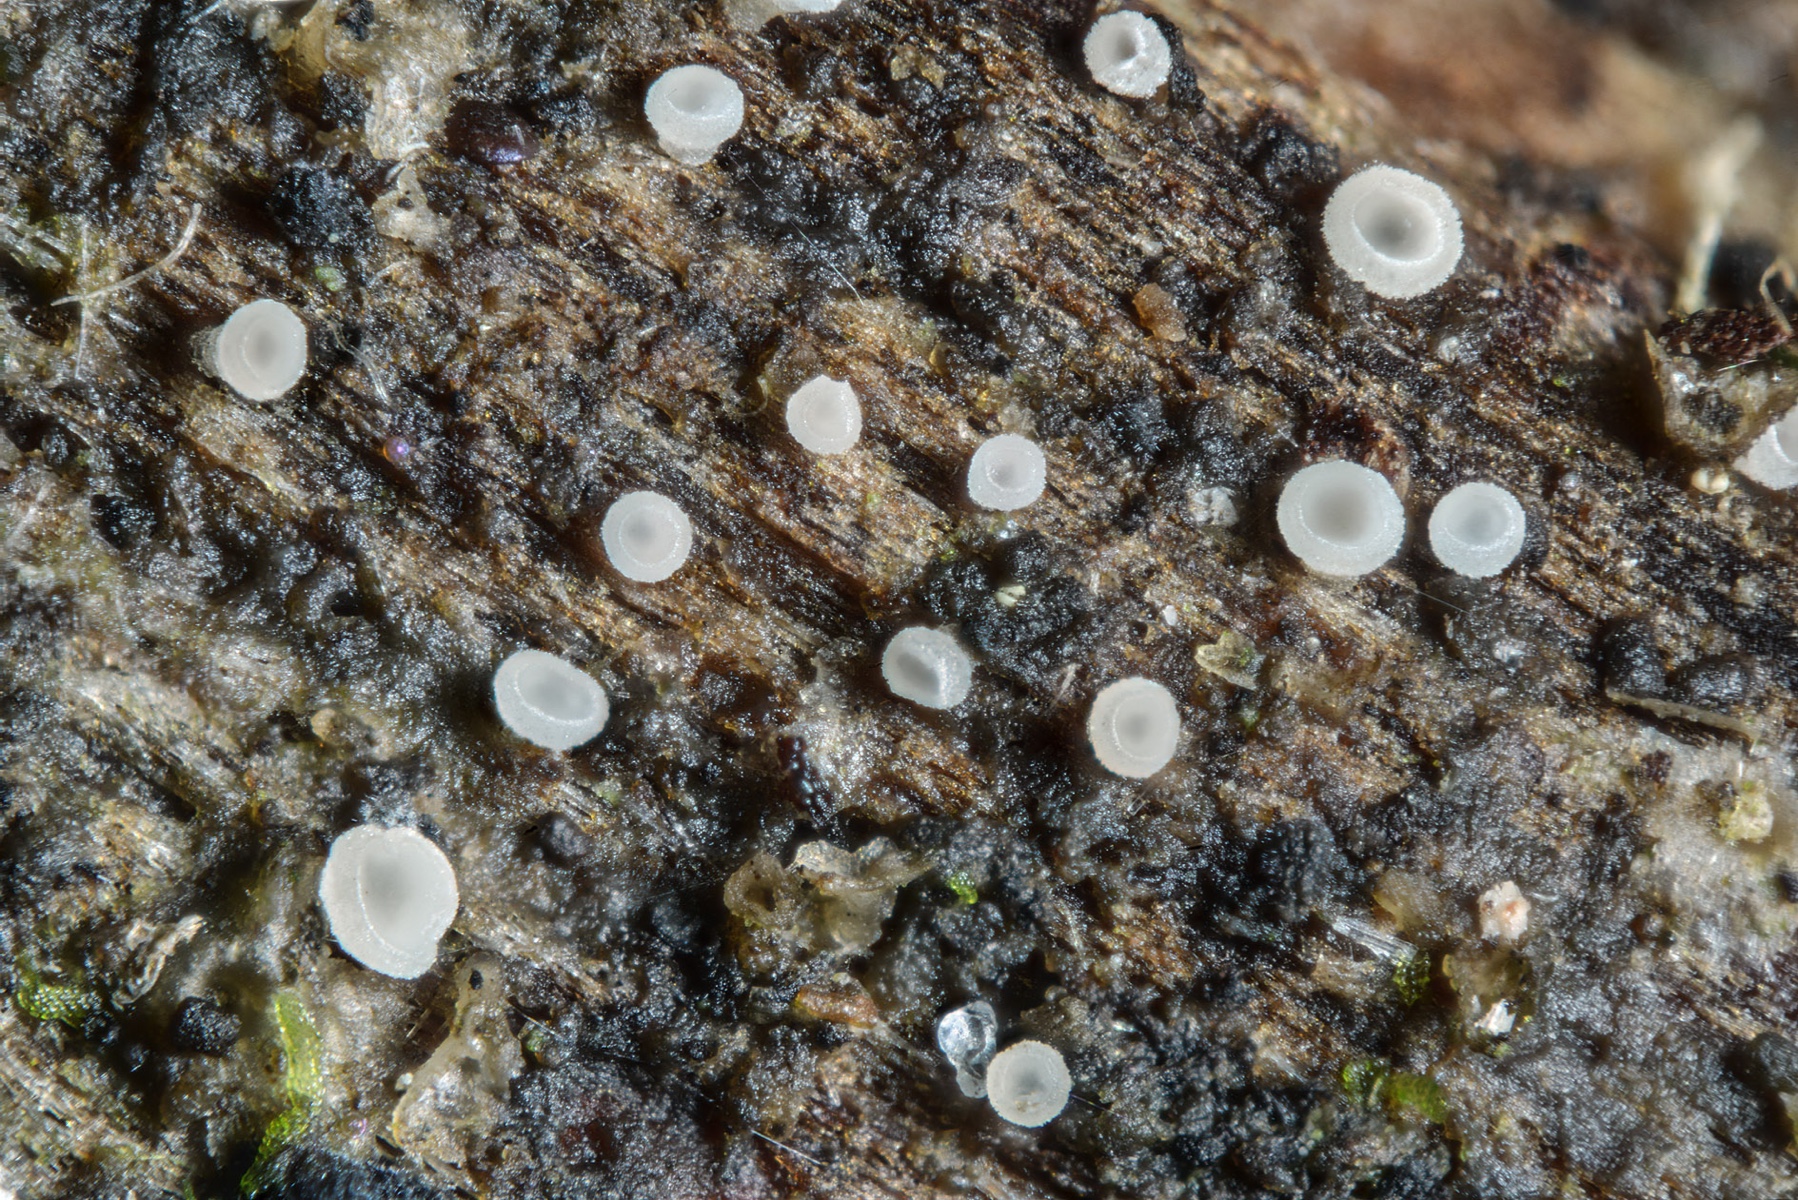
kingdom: Fungi
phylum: Ascomycota
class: Leotiomycetes
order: Helotiales
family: Pezizellaceae
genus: Calycina
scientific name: Calycina vulgaris
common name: pølsesporet gulskive
